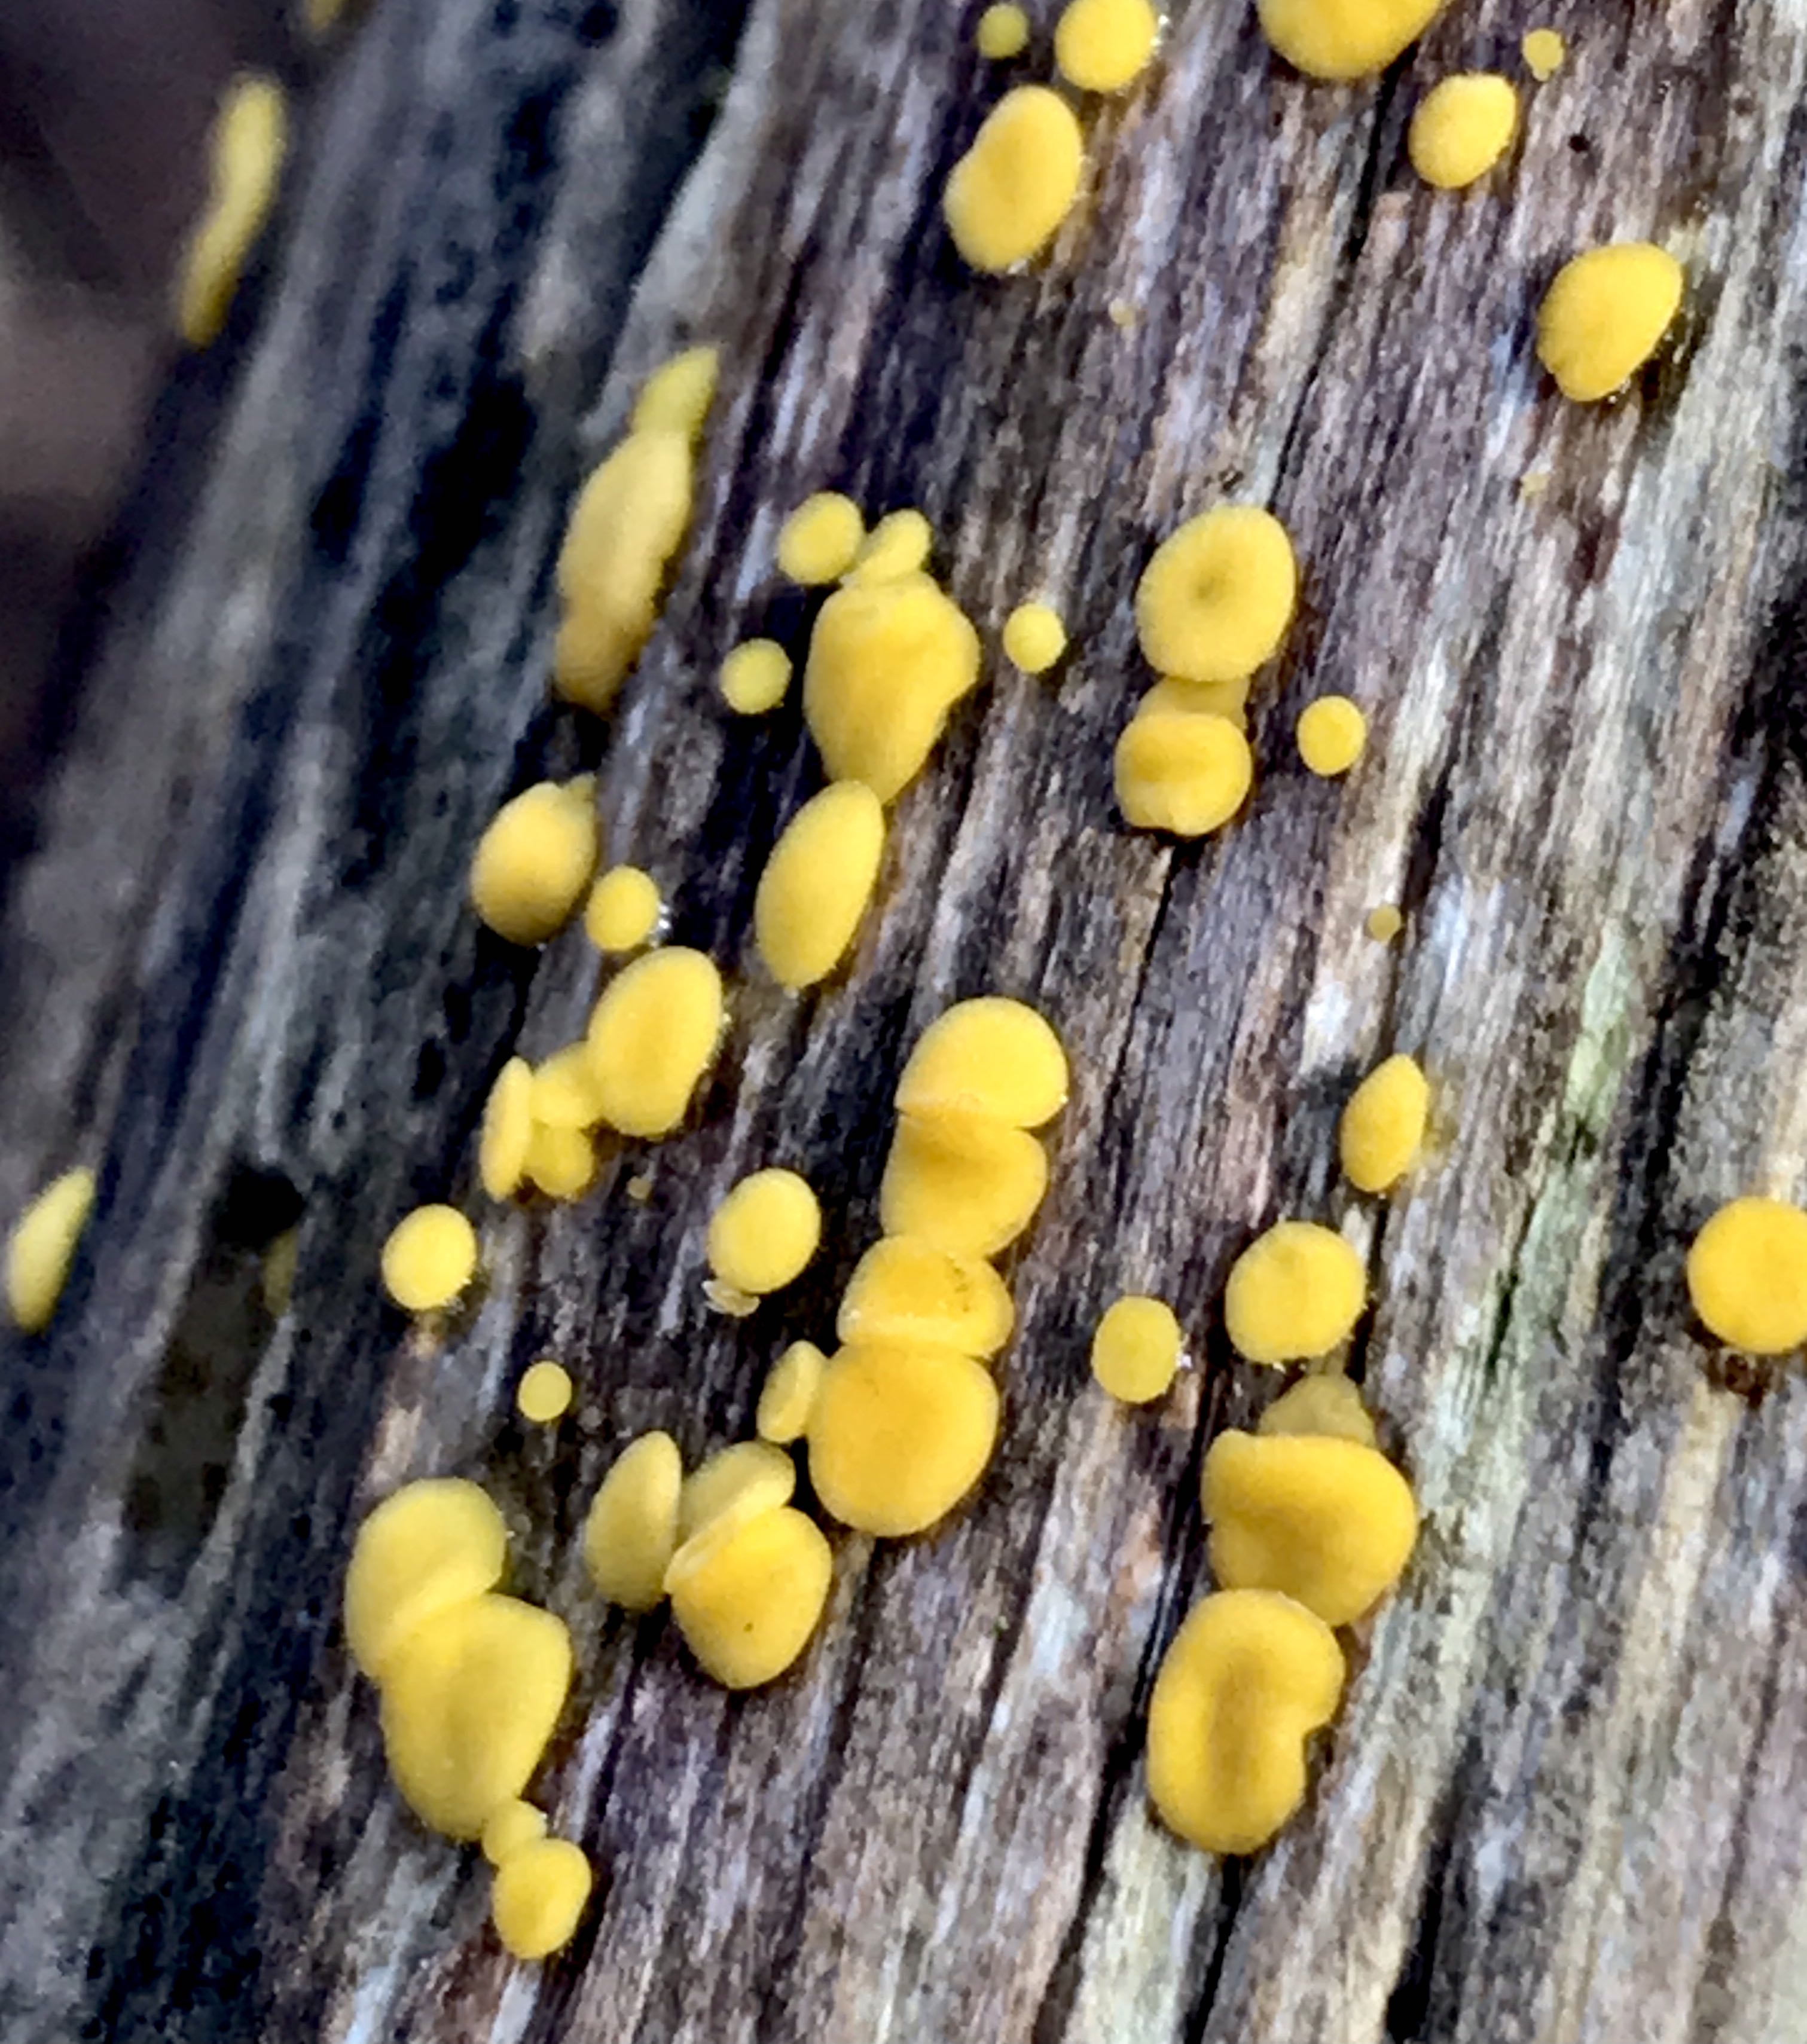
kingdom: Fungi
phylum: Ascomycota
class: Leotiomycetes
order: Helotiales
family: Pezizellaceae
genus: Calycina
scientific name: Calycina citrina
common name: almindelig gulskive
